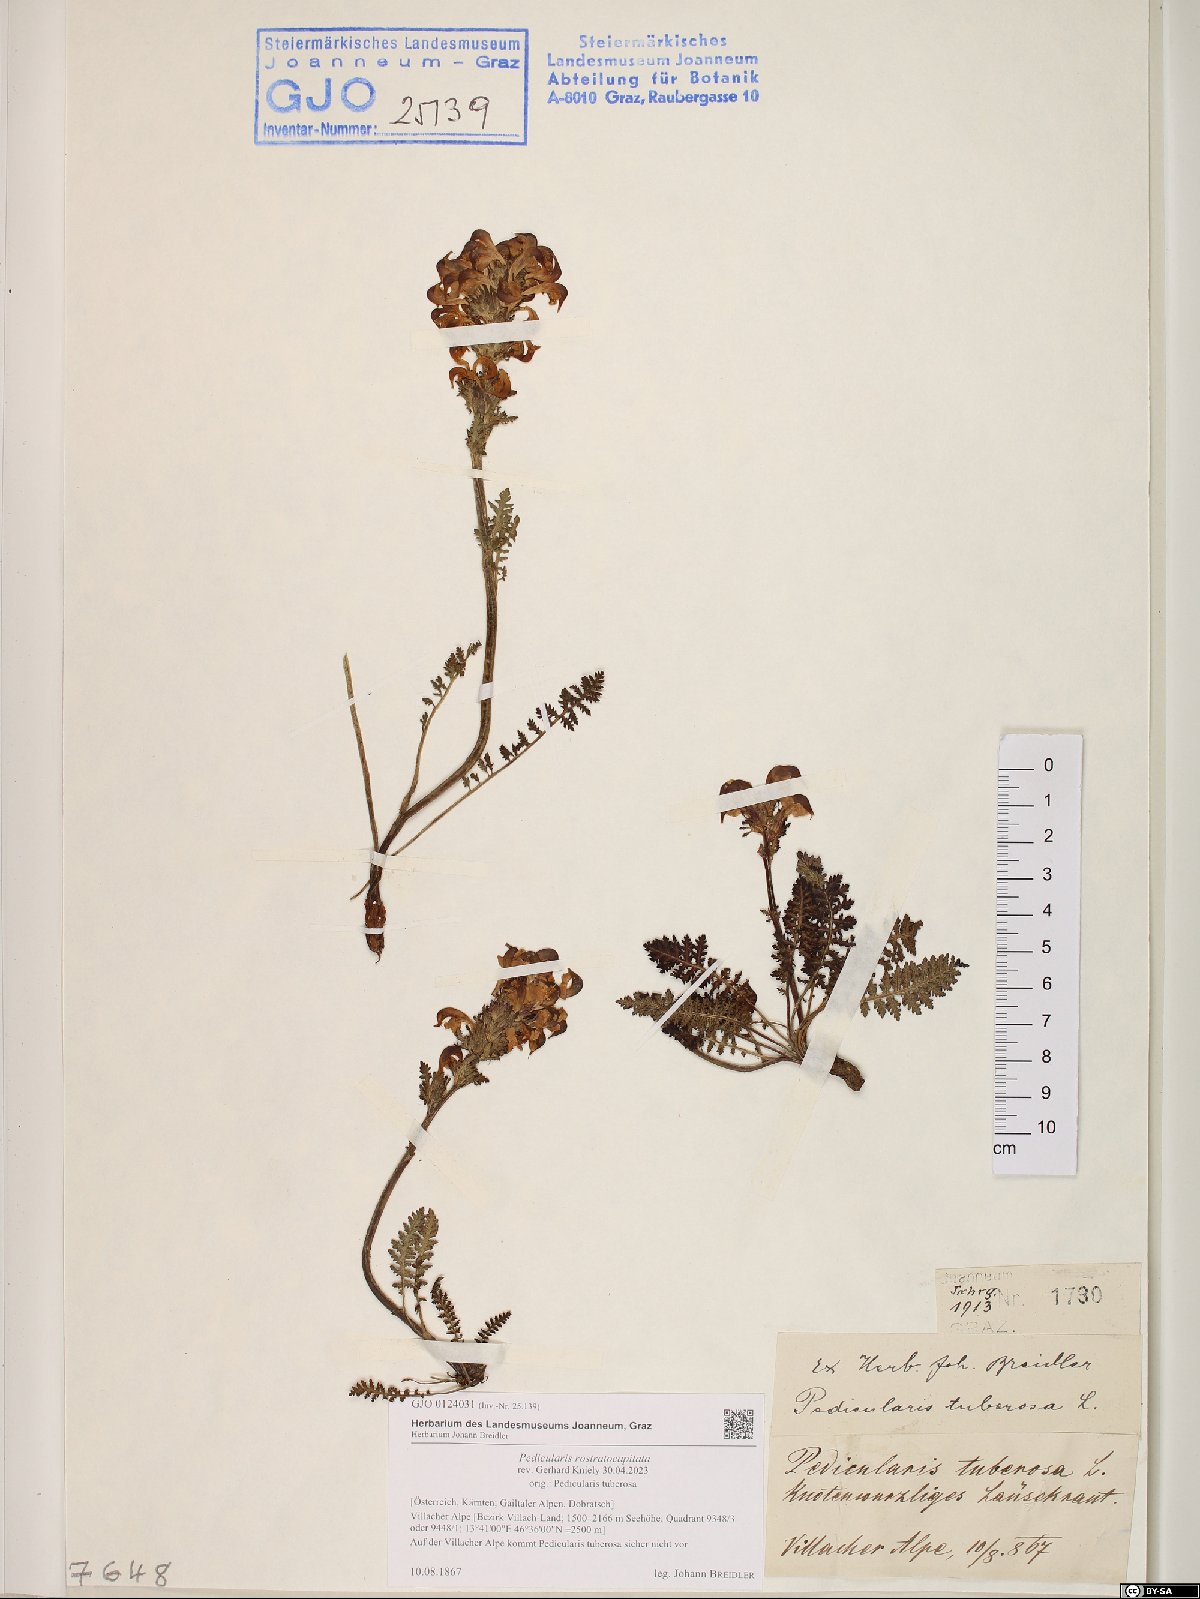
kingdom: Plantae
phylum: Tracheophyta
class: Magnoliopsida
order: Lamiales
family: Orobanchaceae
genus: Pedicularis
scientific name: Pedicularis rostratocapitata
